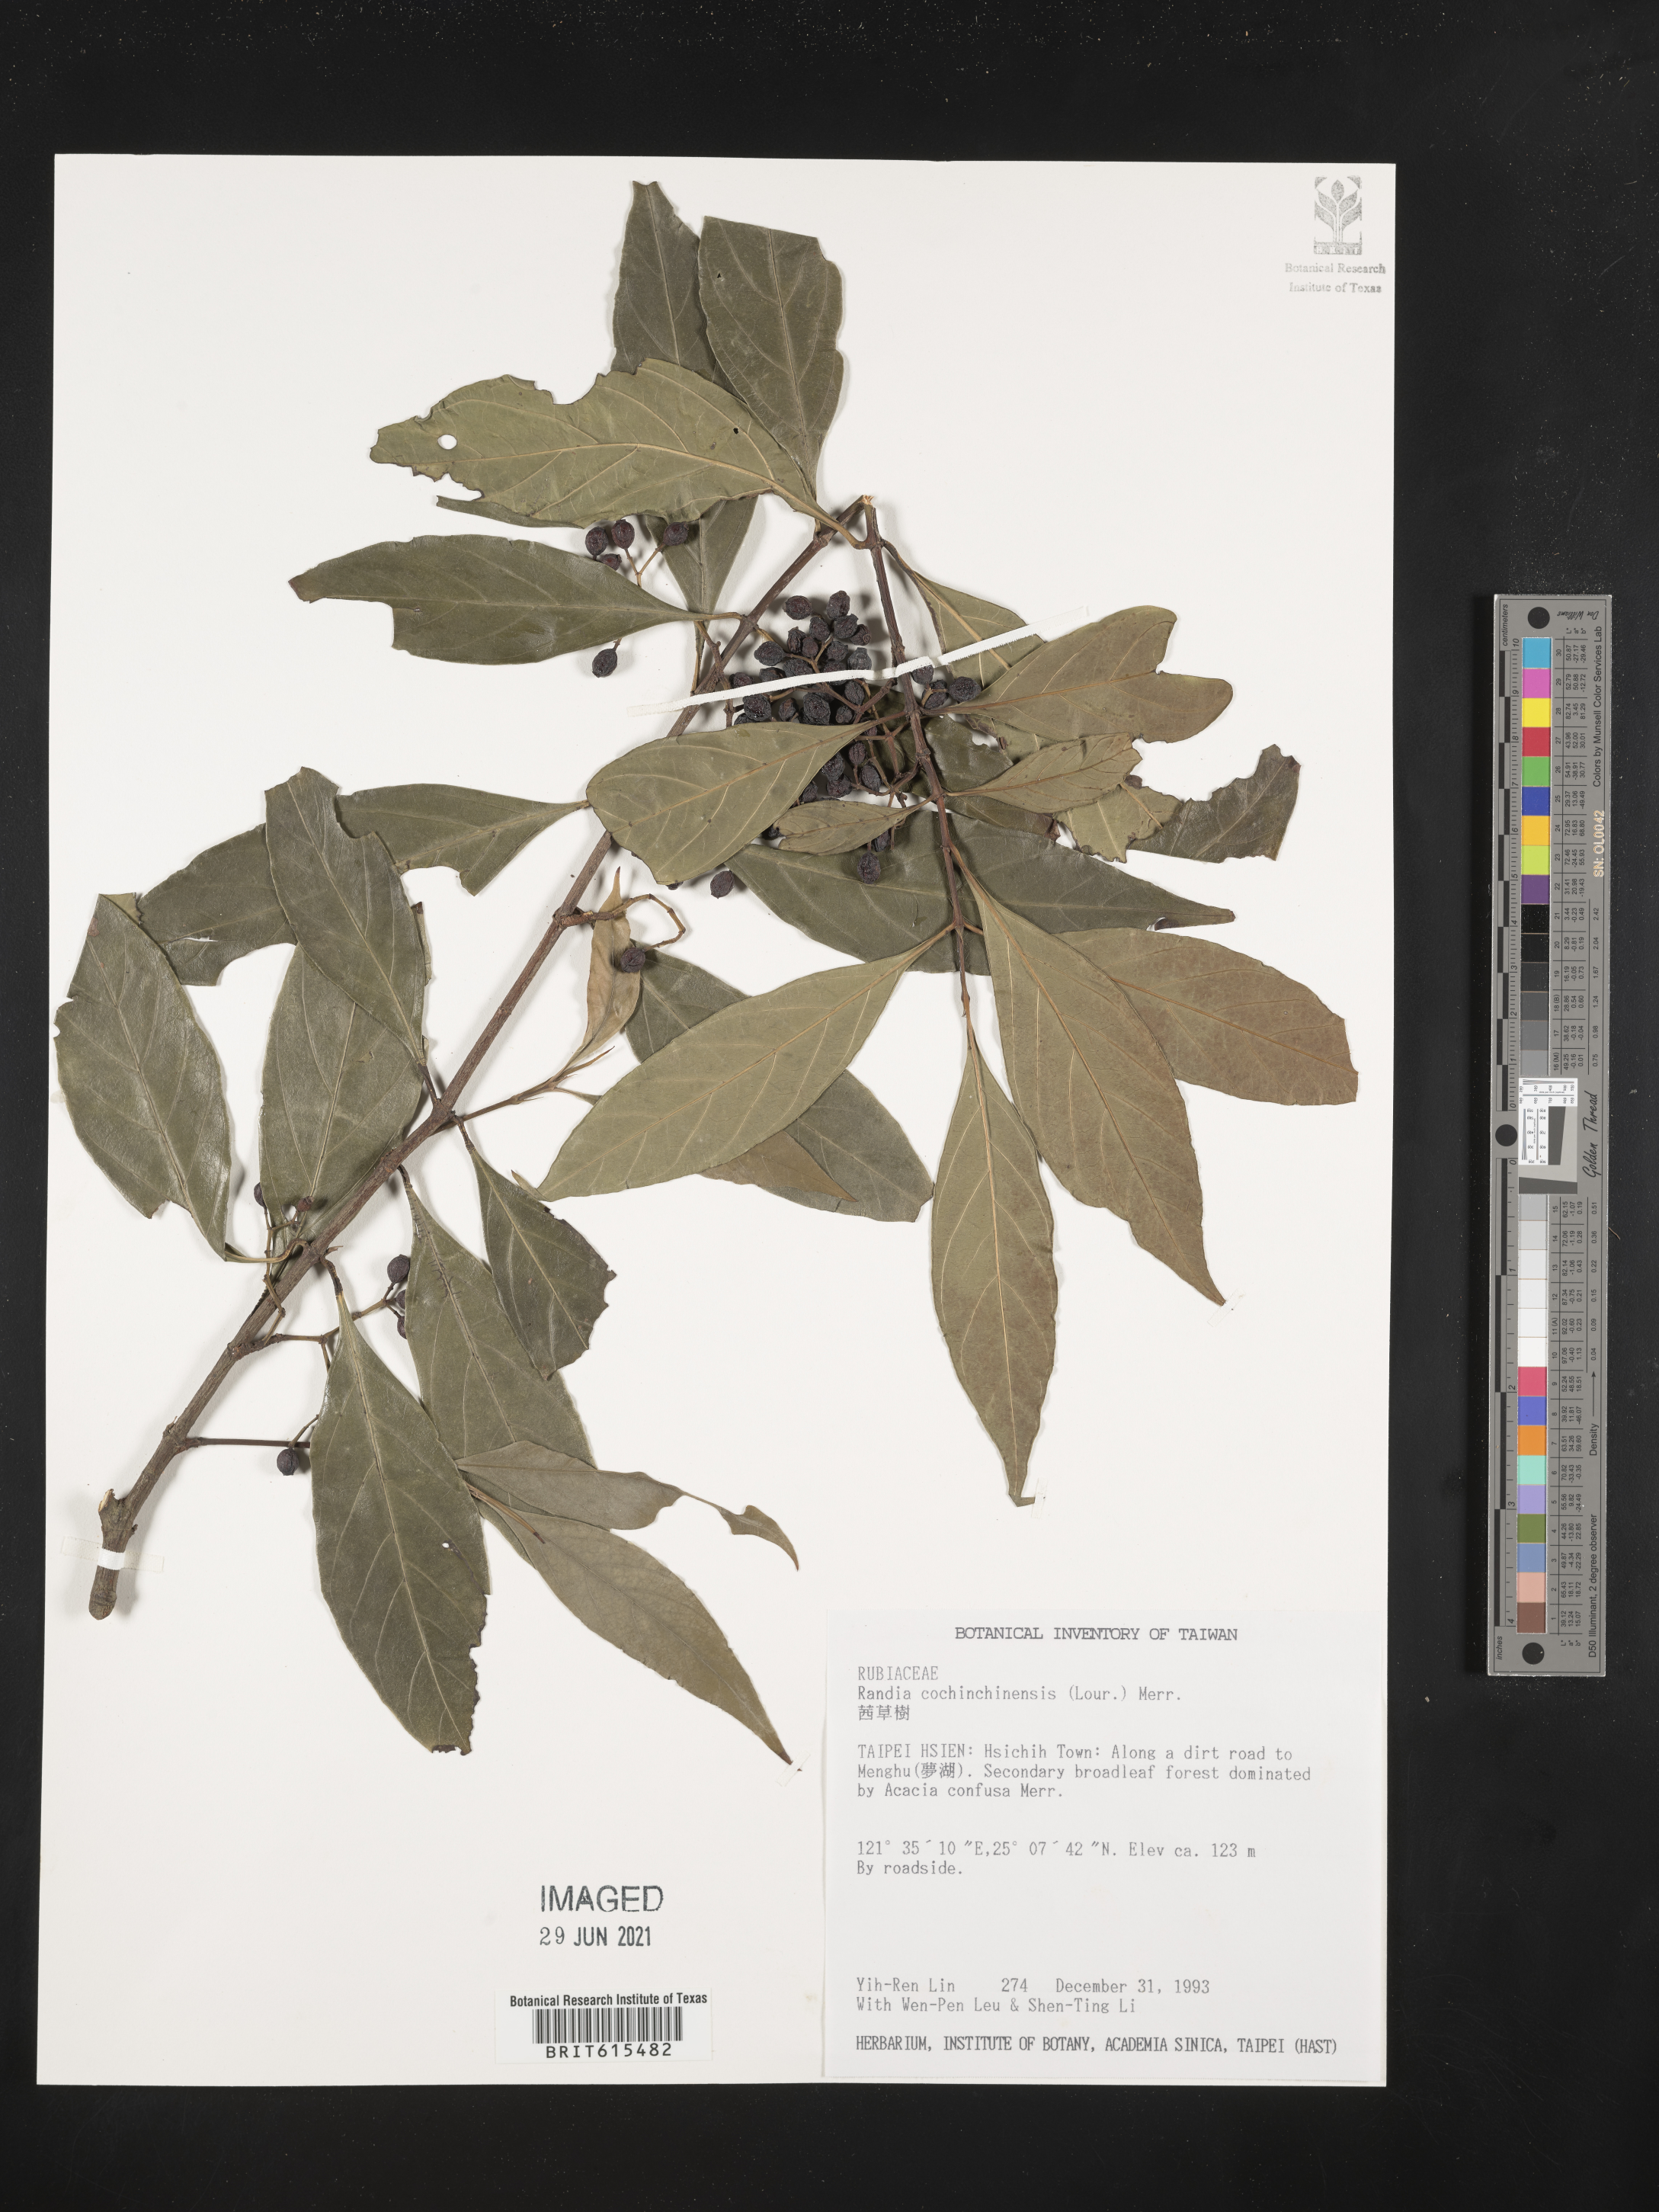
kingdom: Plantae
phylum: Tracheophyta
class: Magnoliopsida
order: Gentianales
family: Rubiaceae
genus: Randia
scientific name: Randia cochinchinensis
